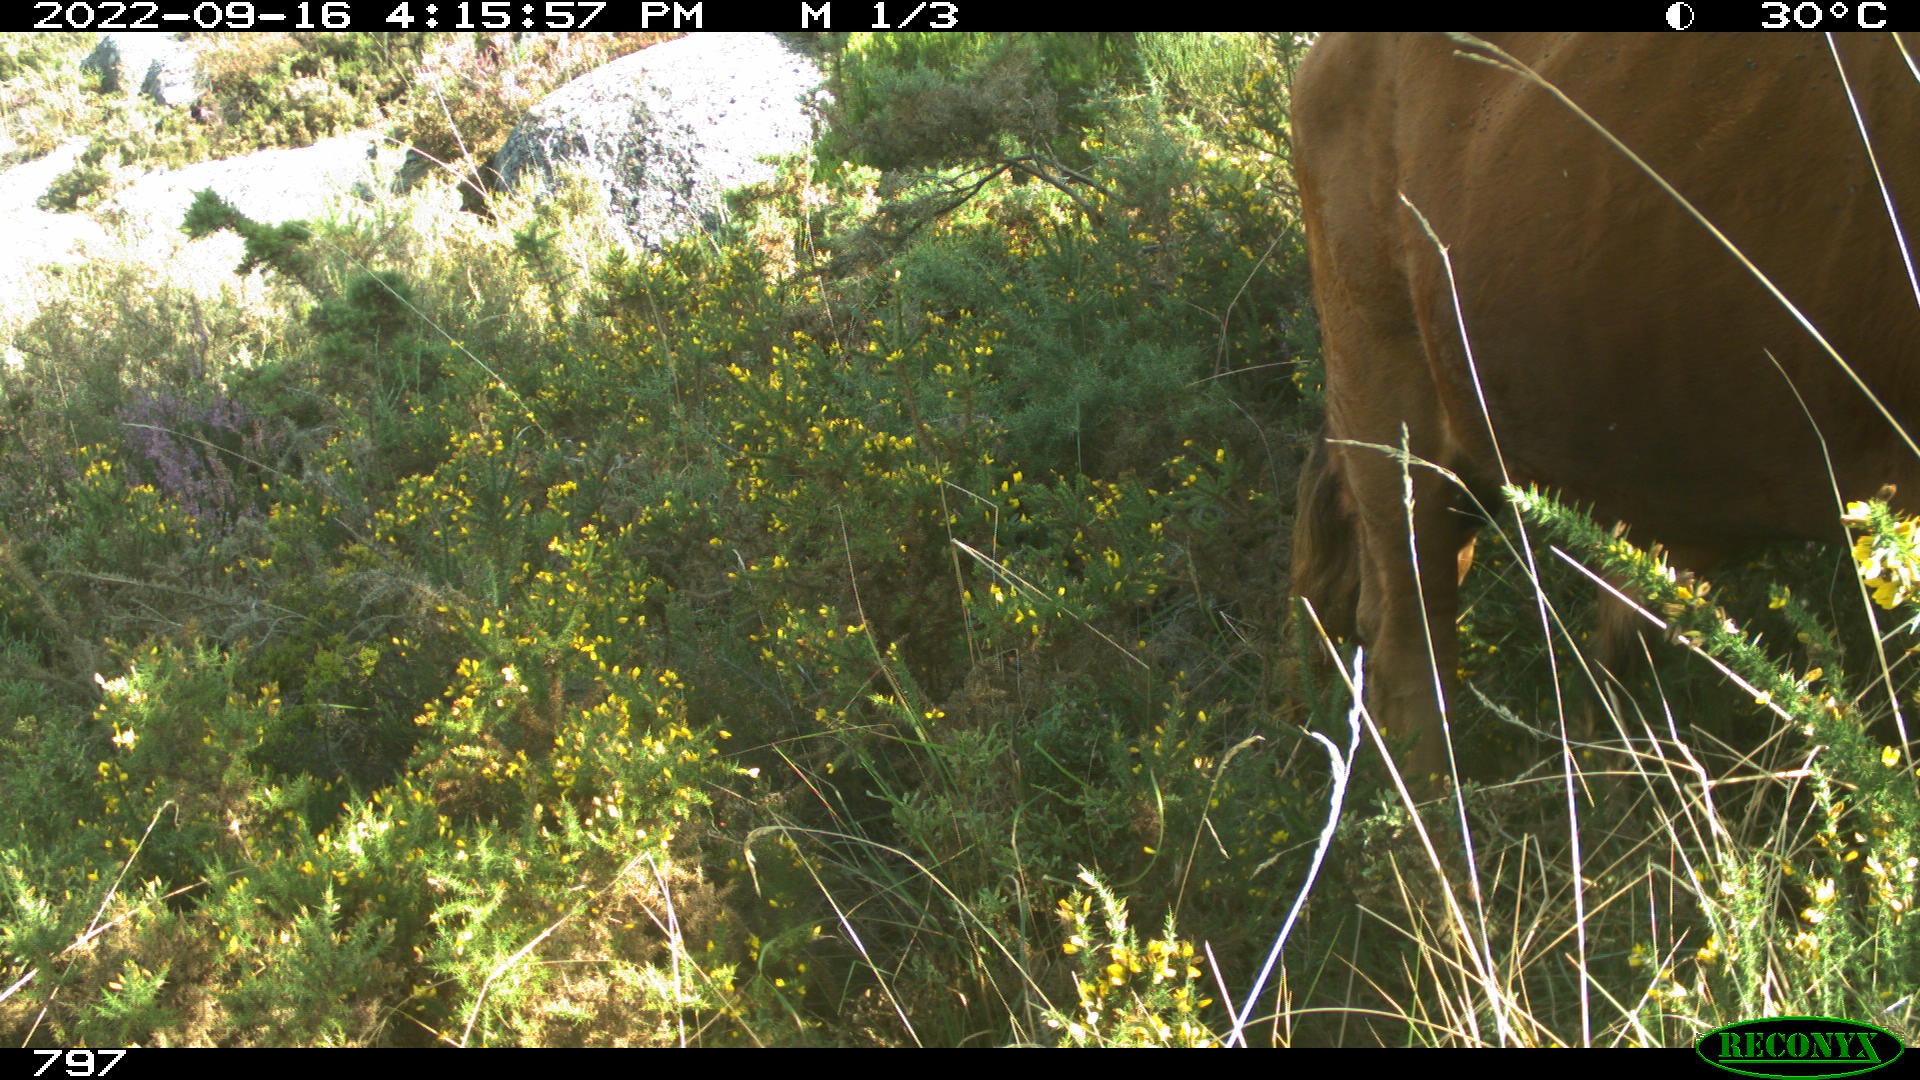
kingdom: Animalia
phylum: Chordata
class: Mammalia
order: Artiodactyla
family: Bovidae
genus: Bos
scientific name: Bos taurus
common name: Domesticated cattle
